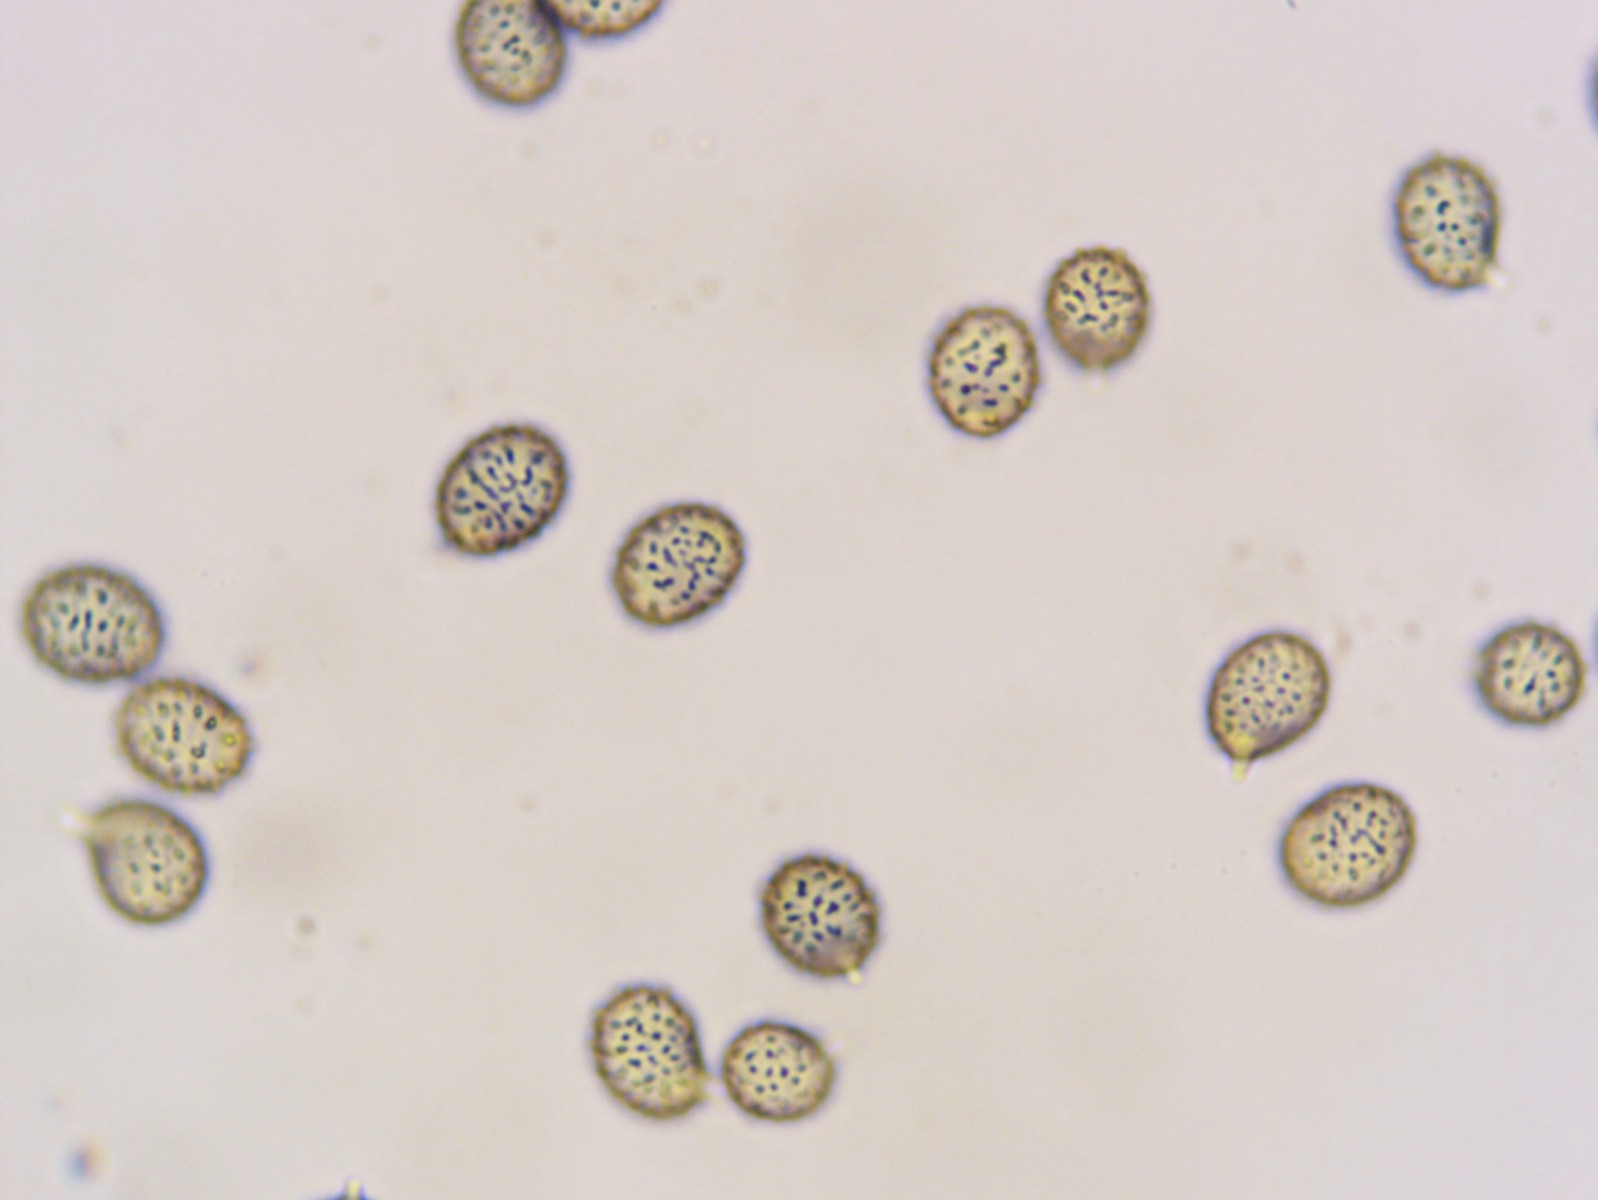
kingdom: Fungi
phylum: Basidiomycota
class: Agaricomycetes
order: Russulales
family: Russulaceae
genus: Russula
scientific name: Russula favrei
